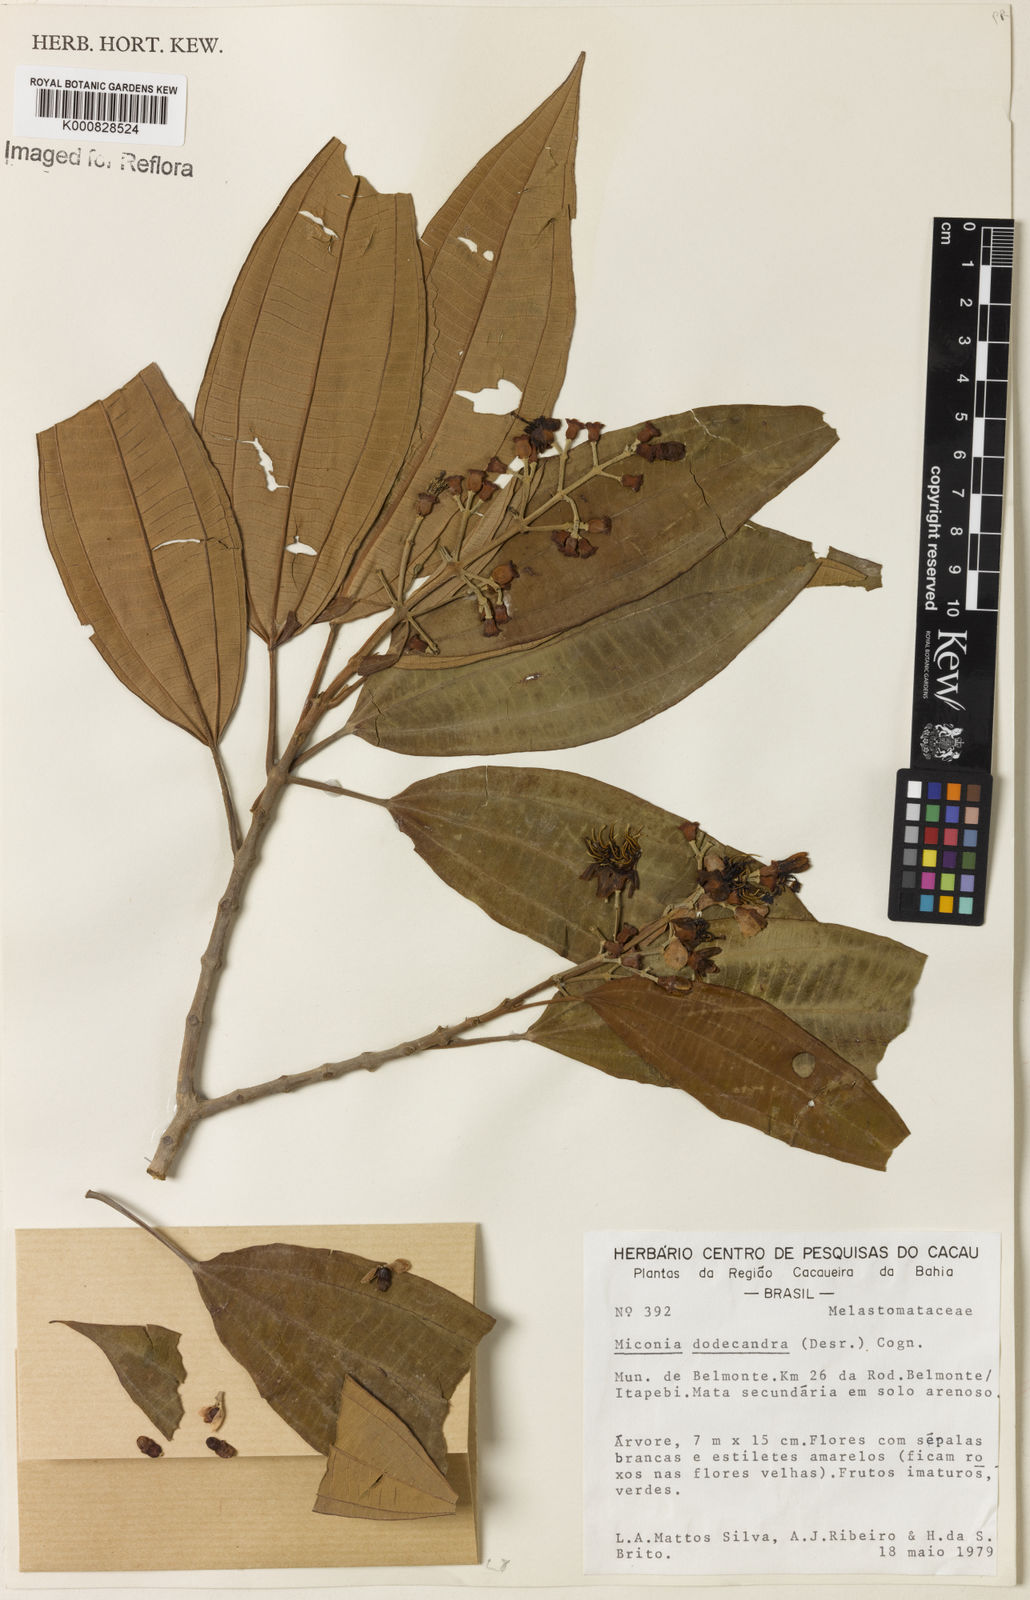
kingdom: Plantae
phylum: Tracheophyta
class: Magnoliopsida
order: Myrtales
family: Melastomataceae
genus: Miconia
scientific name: Miconia dodecandra
